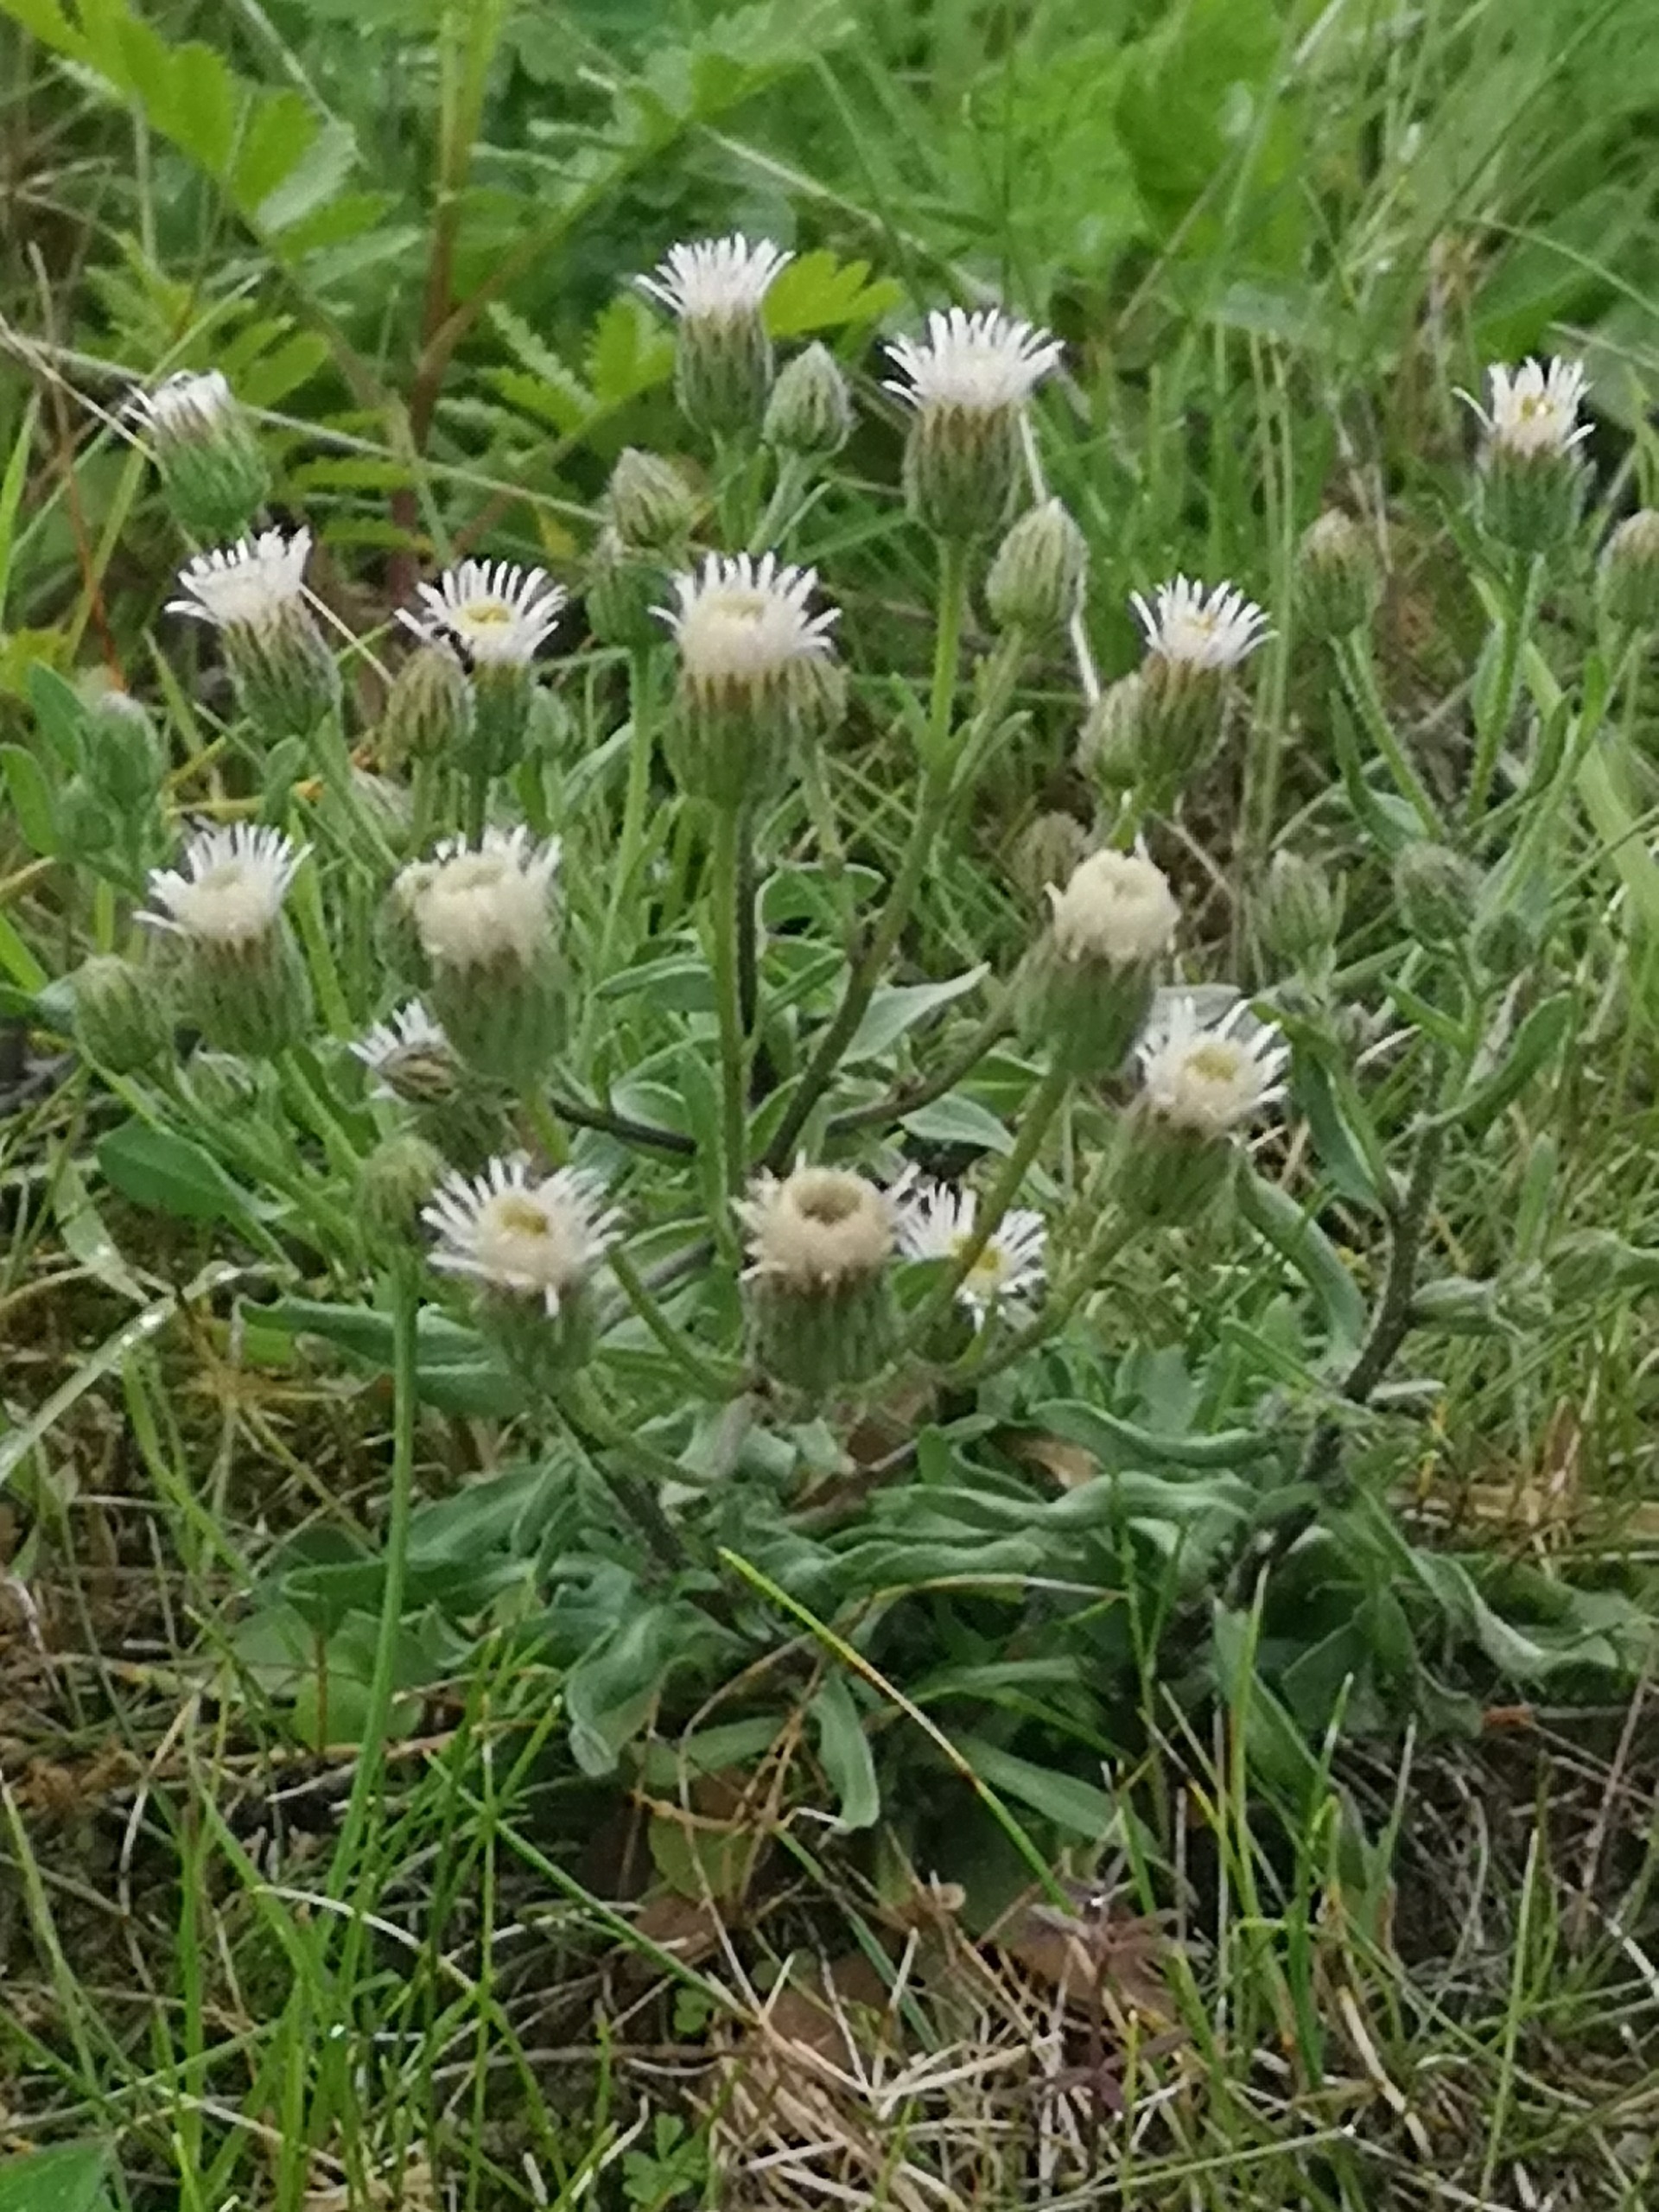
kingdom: Plantae
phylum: Tracheophyta
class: Magnoliopsida
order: Asterales
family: Asteraceae
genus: Erigeron
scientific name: Erigeron muralis
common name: Vreden bakkestjerne
